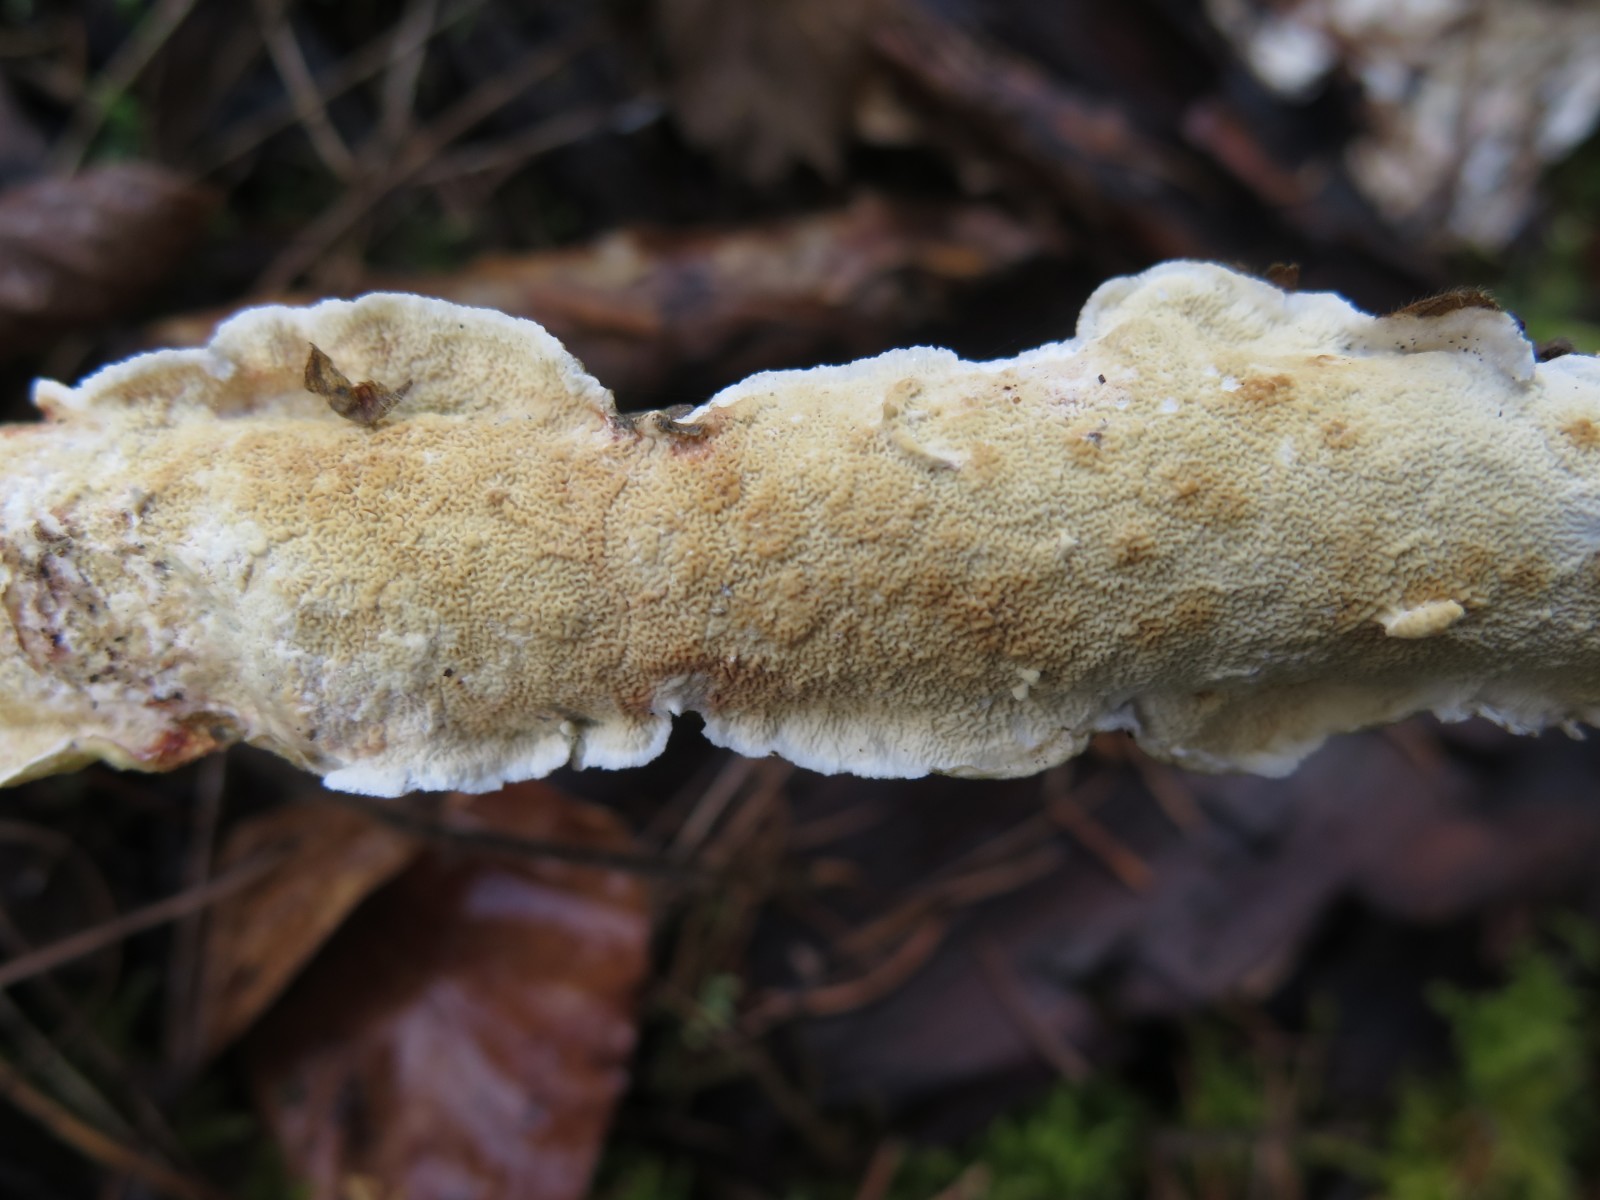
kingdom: Fungi
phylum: Basidiomycota
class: Agaricomycetes
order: Polyporales
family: Irpicaceae
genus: Byssomerulius
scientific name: Byssomerulius corium
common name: læder-åresvamp
